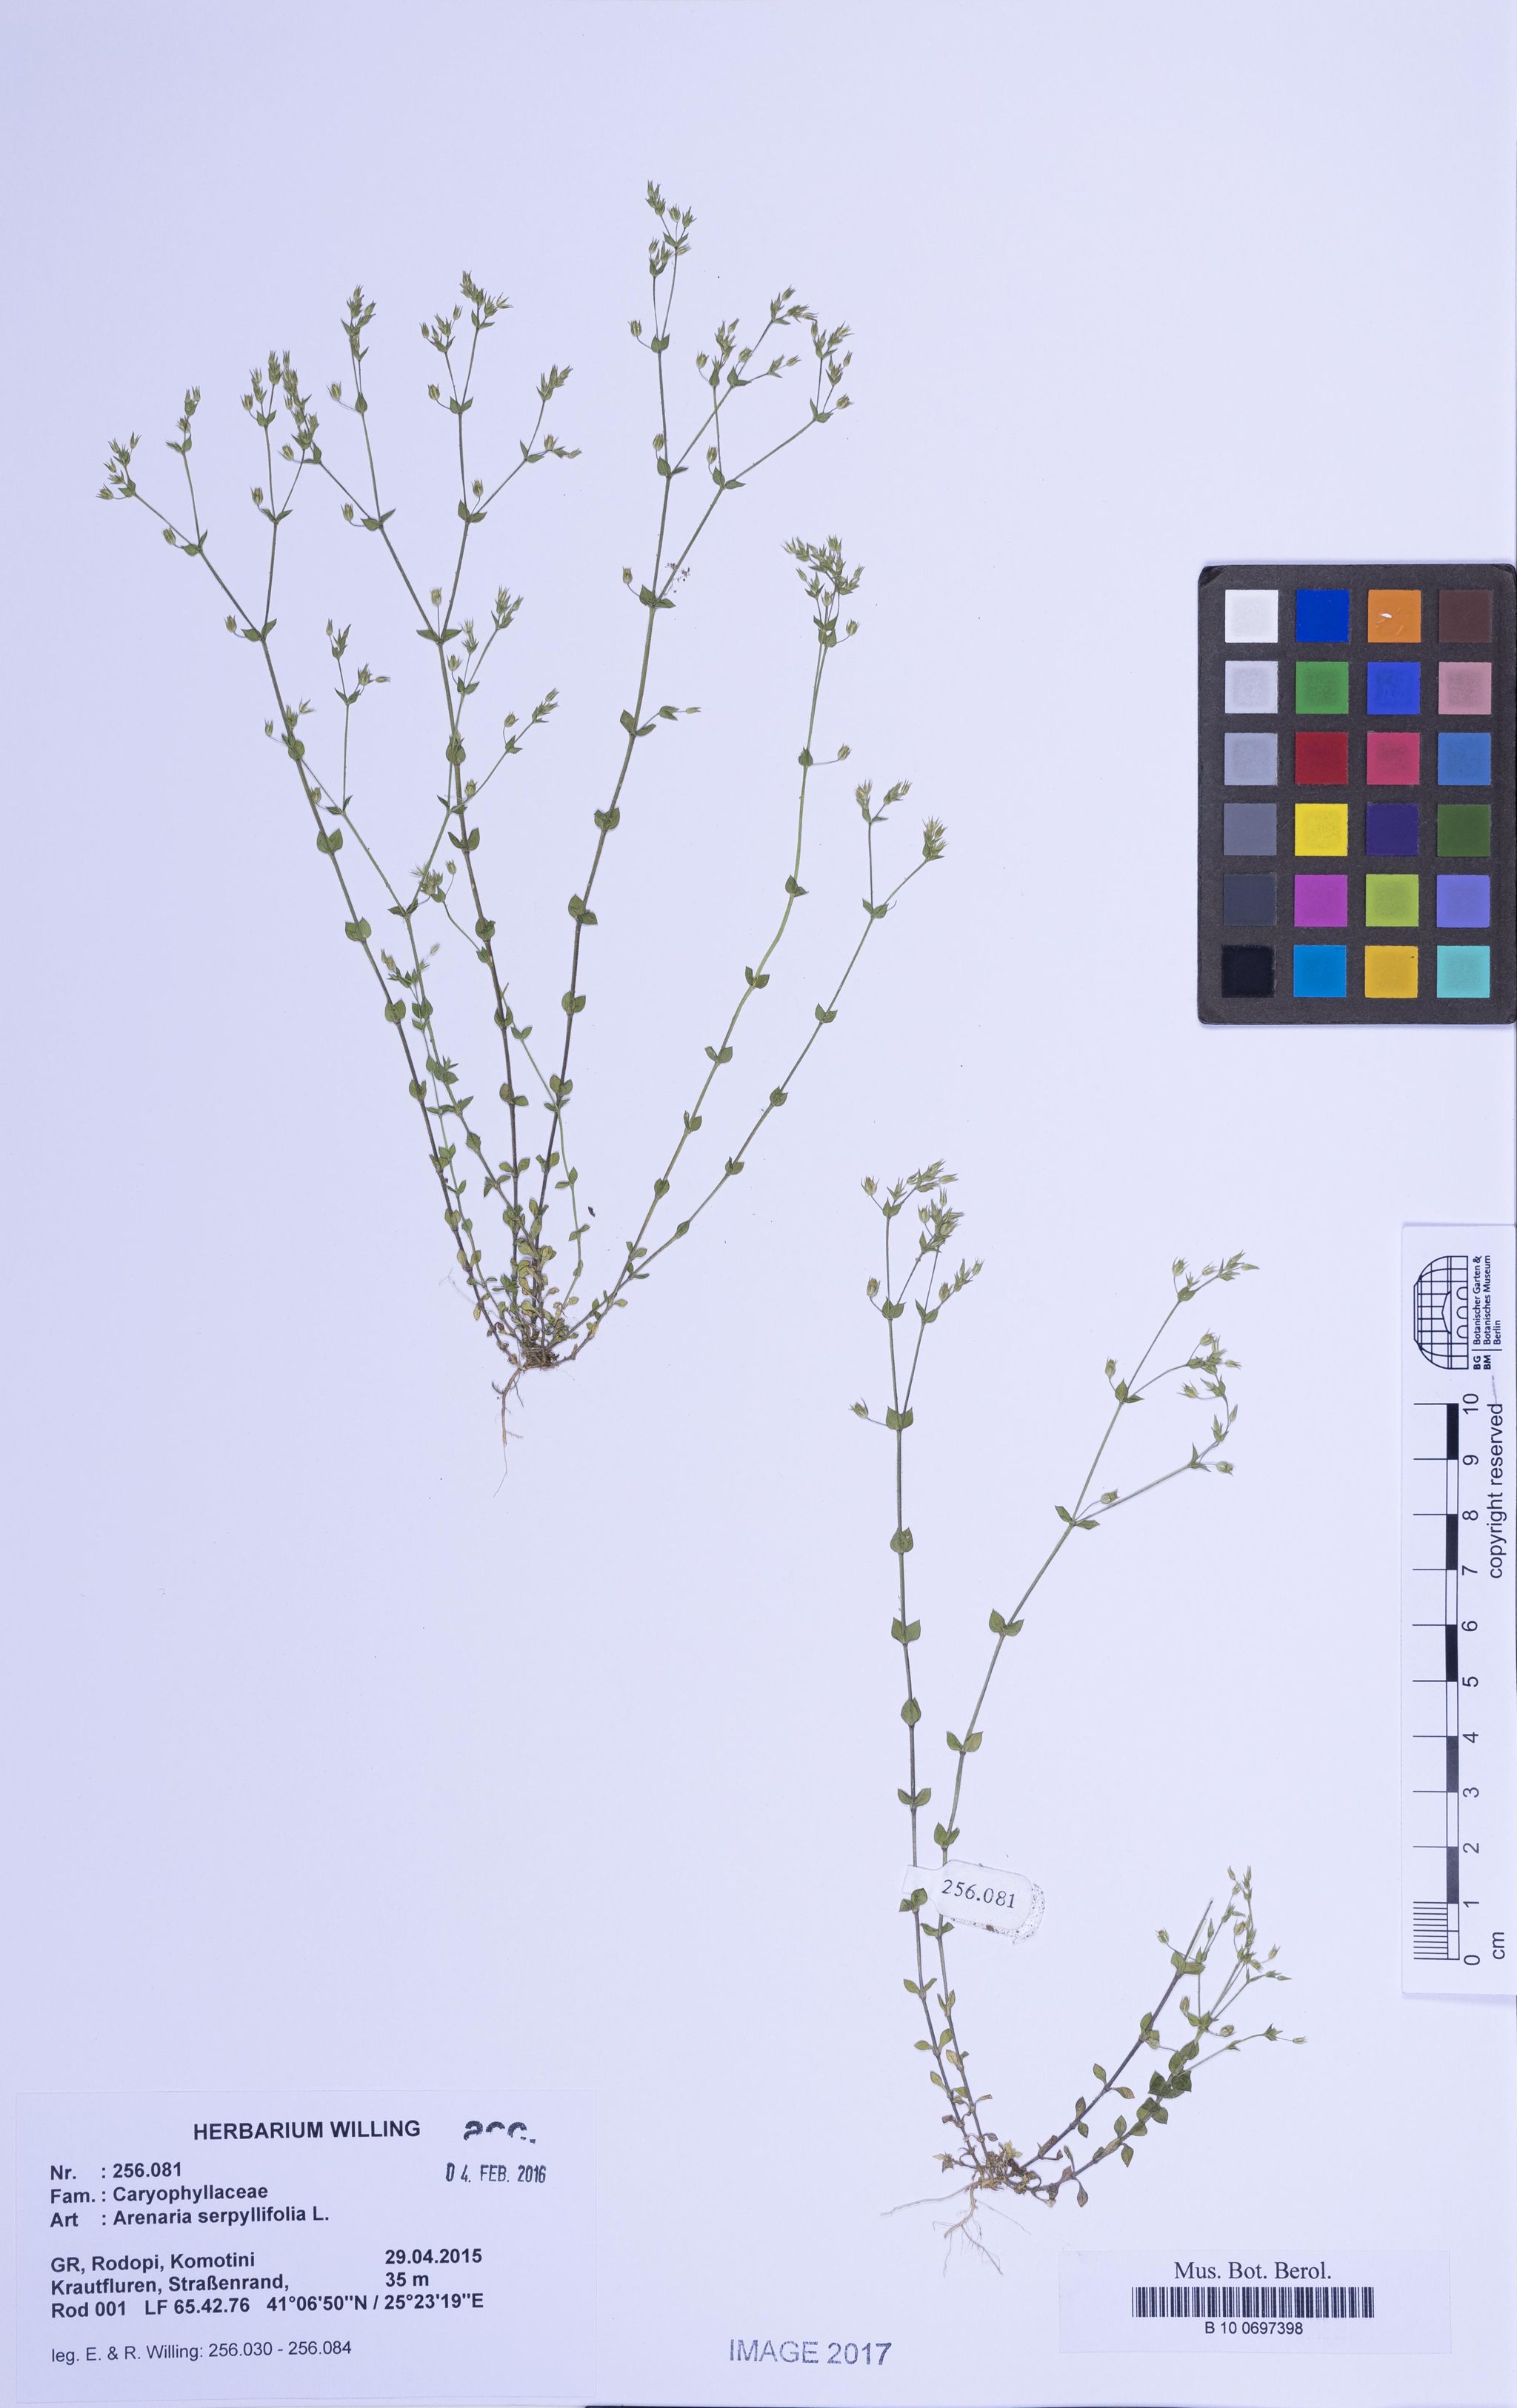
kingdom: Plantae
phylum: Tracheophyta
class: Magnoliopsida
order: Caryophyllales
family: Caryophyllaceae
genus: Arenaria
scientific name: Arenaria serpyllifolia
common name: Thyme-leaved sandwort
